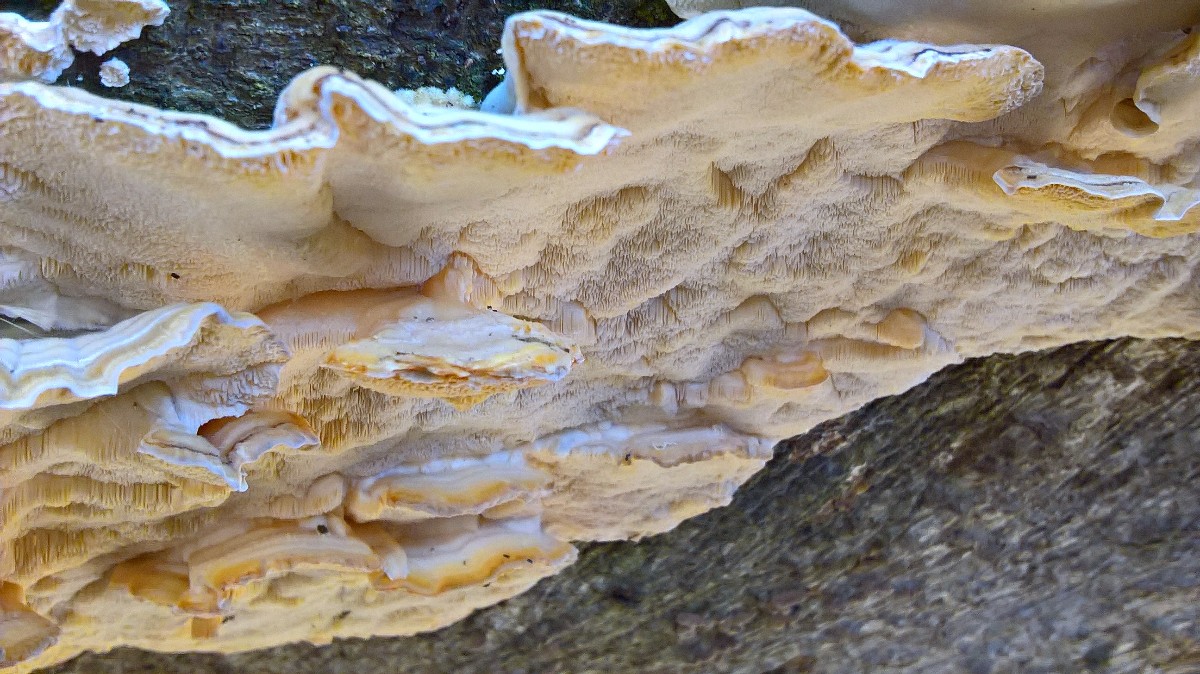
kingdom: Fungi
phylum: Basidiomycota
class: Agaricomycetes
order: Polyporales
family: Polyporaceae
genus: Trametes
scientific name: Trametes versicolor
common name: broget læderporesvamp
